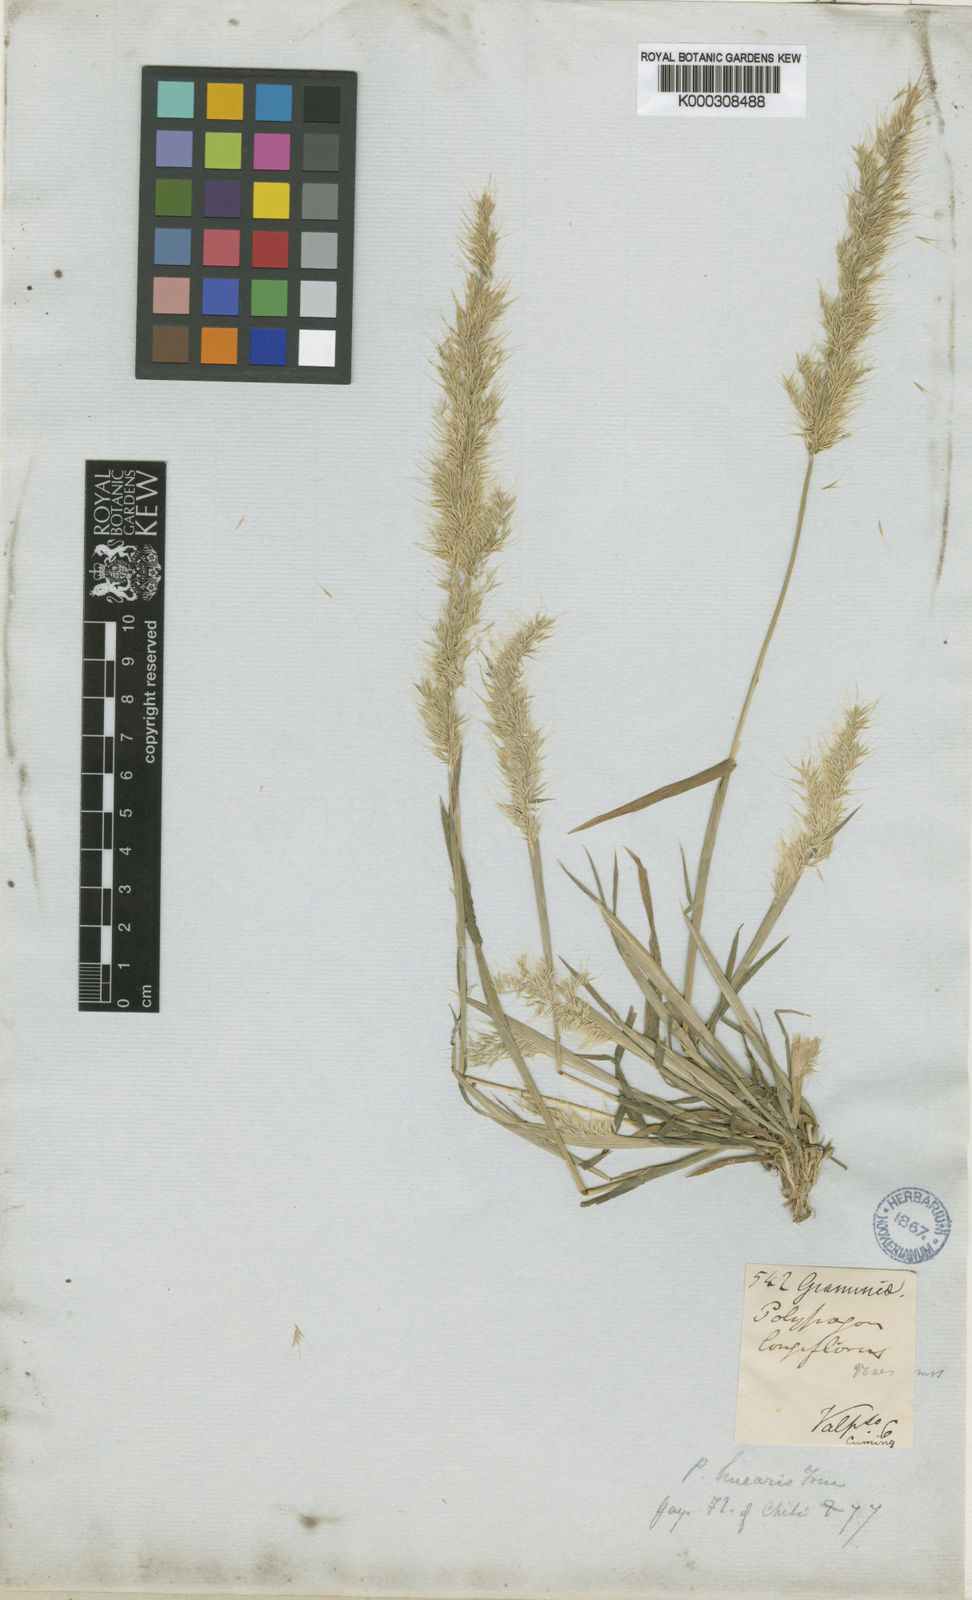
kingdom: Plantae
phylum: Tracheophyta
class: Liliopsida
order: Poales
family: Poaceae
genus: Polypogon
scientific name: Polypogon linearis
